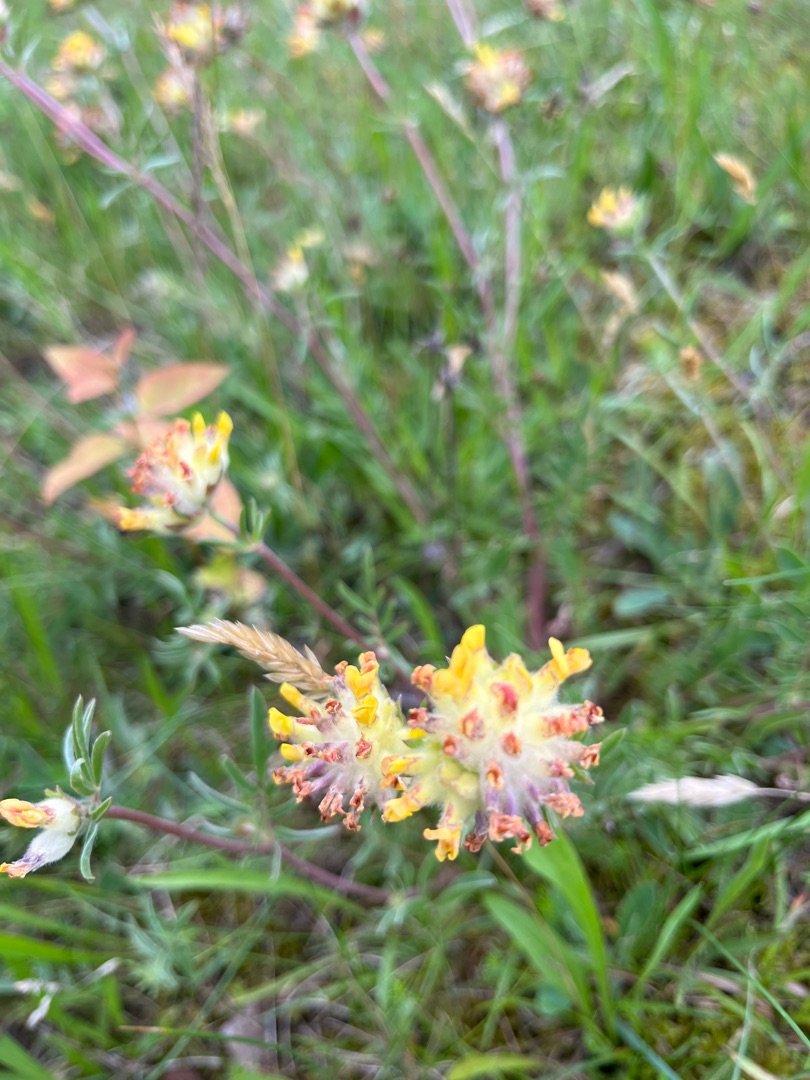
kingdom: Plantae
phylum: Tracheophyta
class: Magnoliopsida
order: Fabales
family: Fabaceae
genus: Anthyllis
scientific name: Anthyllis vulneraria
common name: Rundbælg
